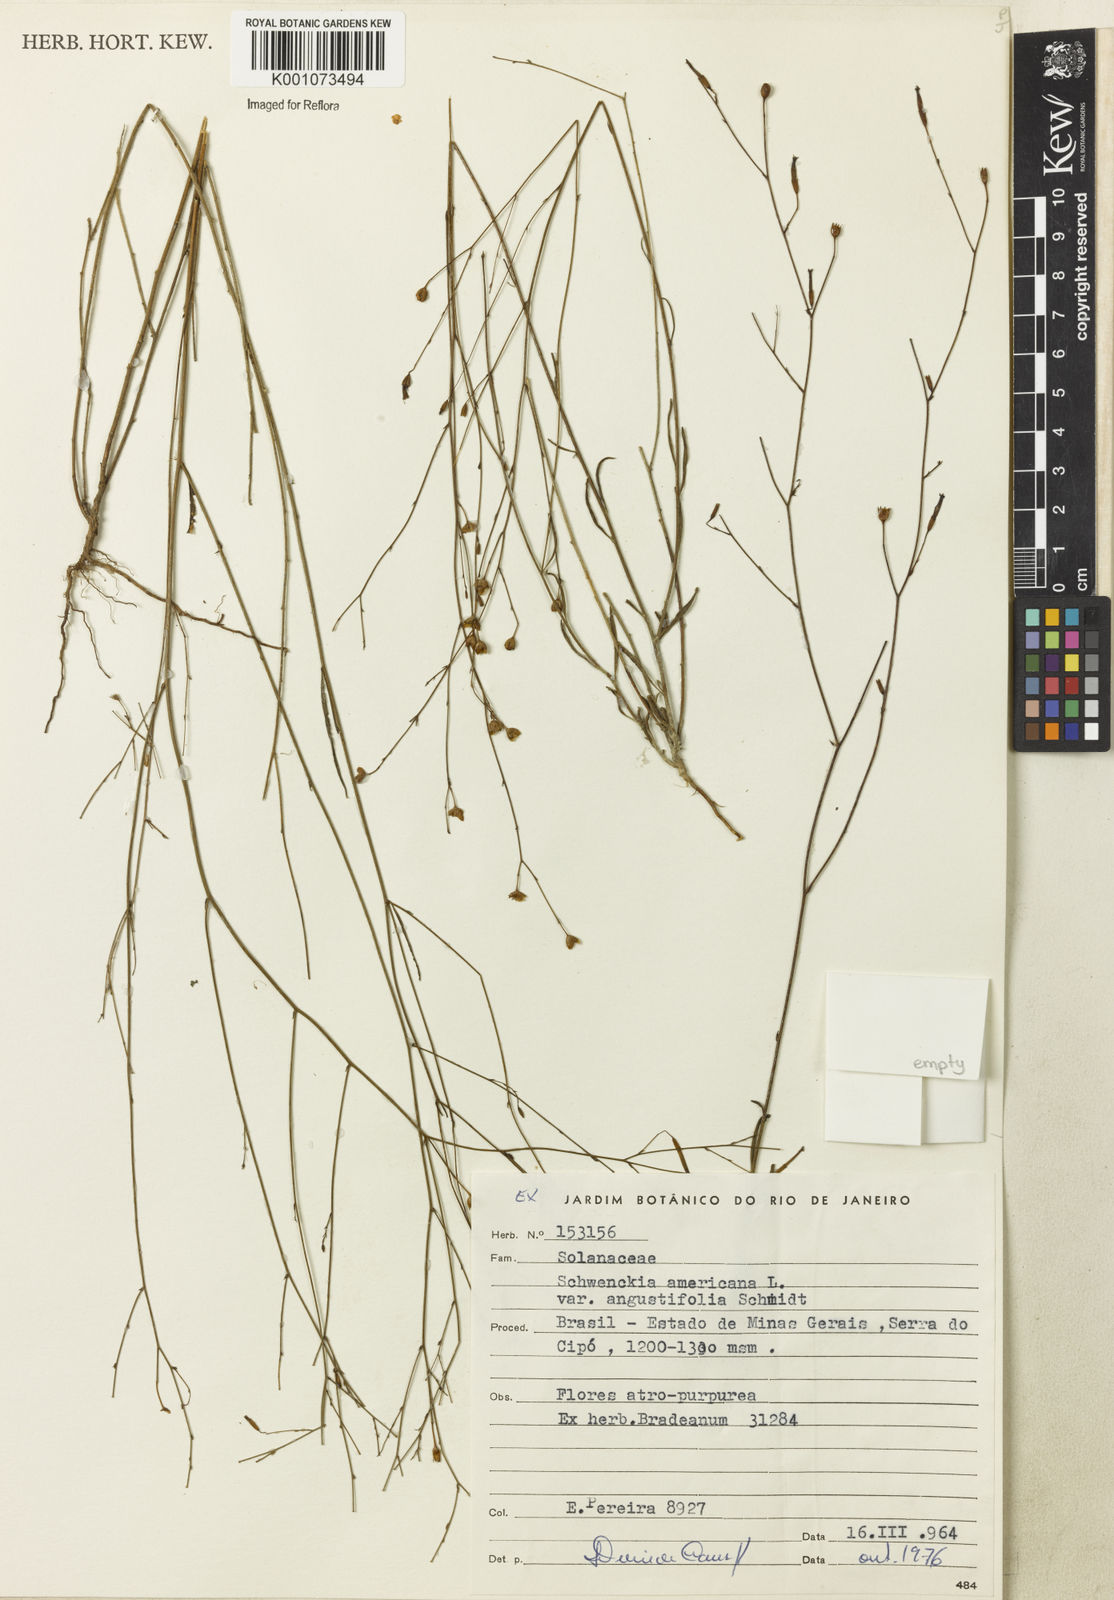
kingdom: Plantae
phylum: Tracheophyta
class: Magnoliopsida
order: Solanales
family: Solanaceae
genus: Schwenckia
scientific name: Schwenckia americana
